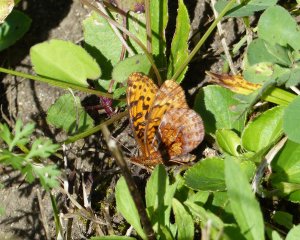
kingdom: Animalia
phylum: Arthropoda
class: Insecta
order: Lepidoptera
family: Nymphalidae
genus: Clossiana
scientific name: Clossiana toddi
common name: Meadow Fritillary
